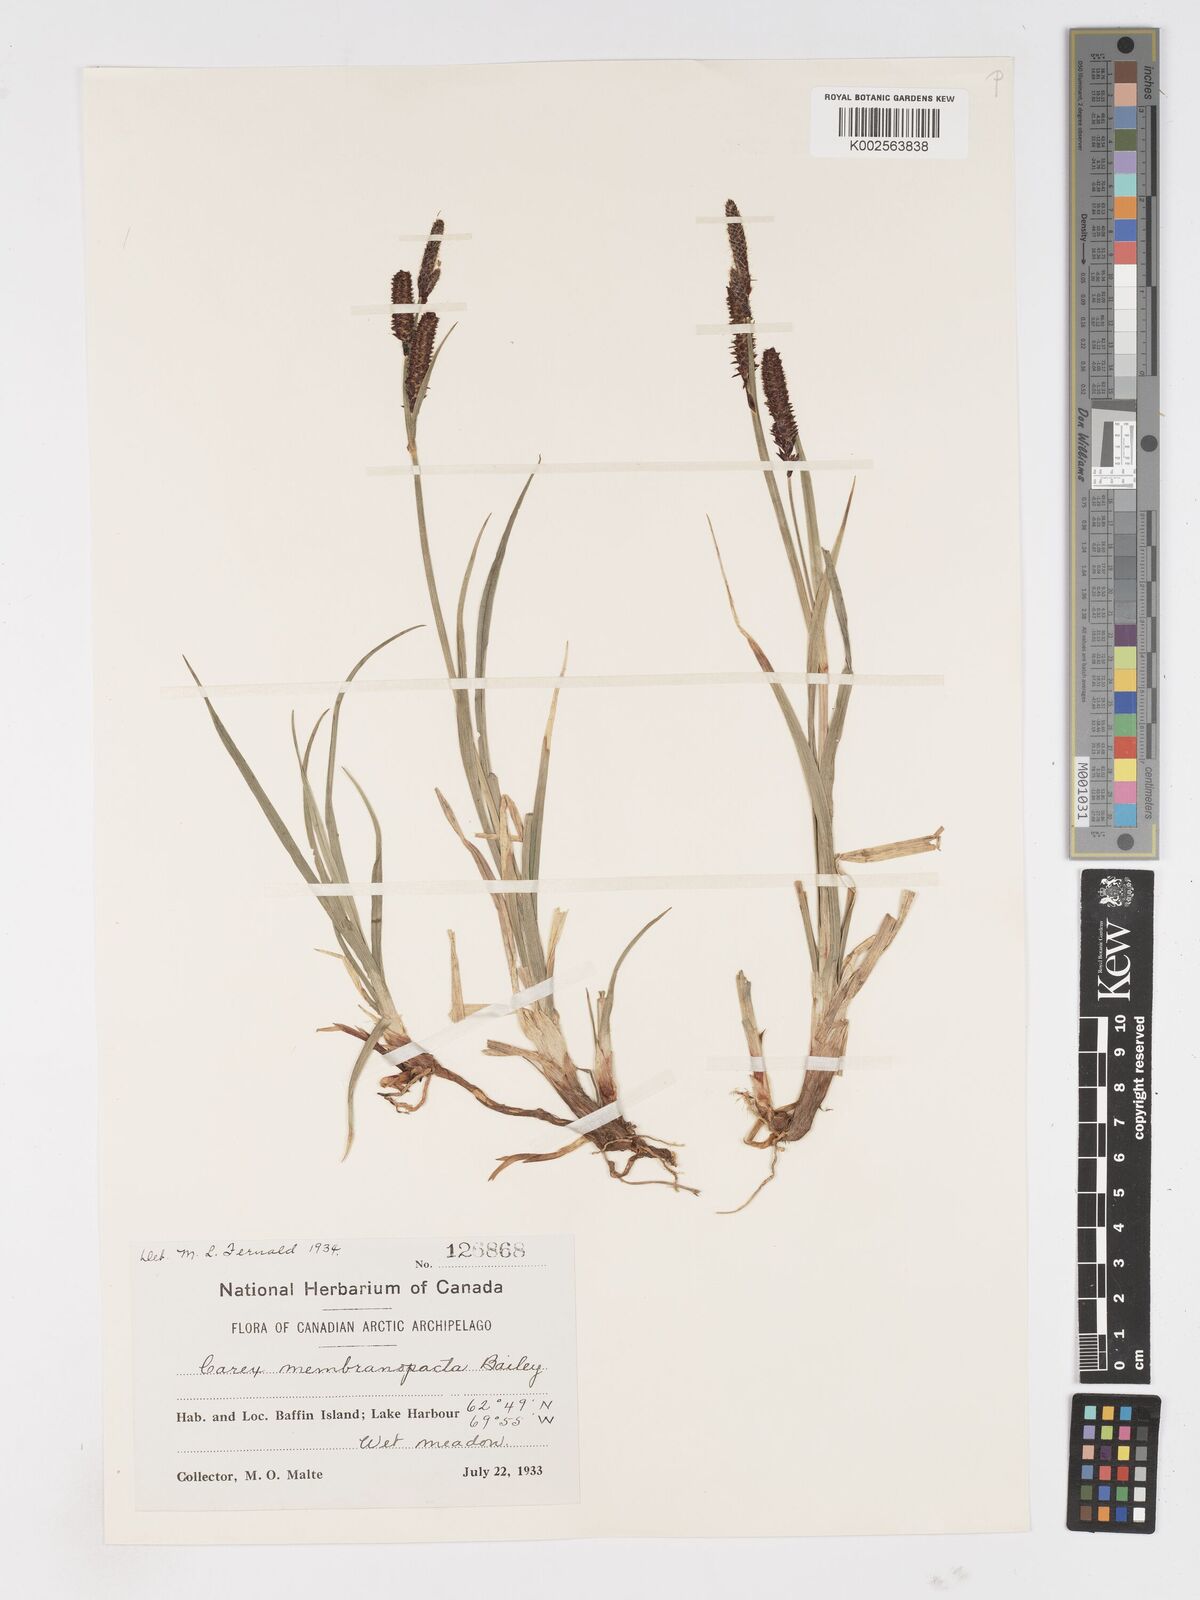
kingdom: Plantae
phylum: Tracheophyta
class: Liliopsida
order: Poales
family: Cyperaceae
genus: Carex
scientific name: Carex membranacea
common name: Fragile sedge
